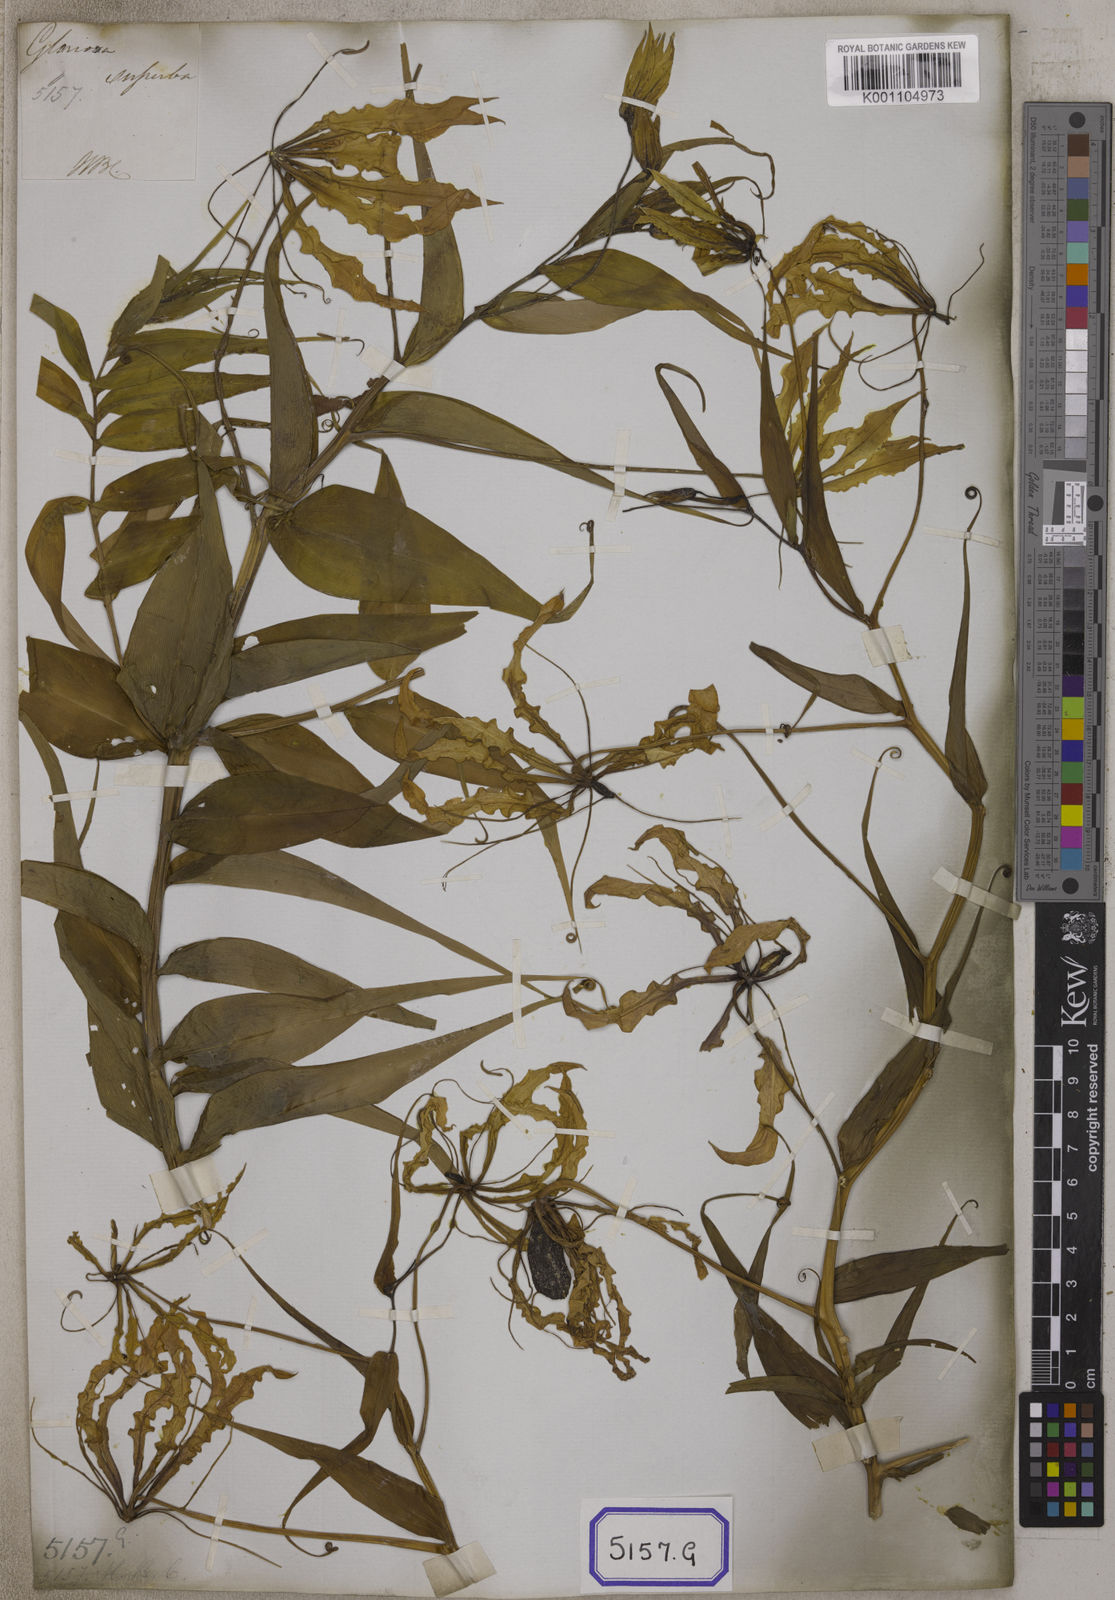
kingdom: Plantae
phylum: Tracheophyta
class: Liliopsida
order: Liliales
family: Colchicaceae
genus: Gloriosa
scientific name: Gloriosa superba
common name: Flame lily
